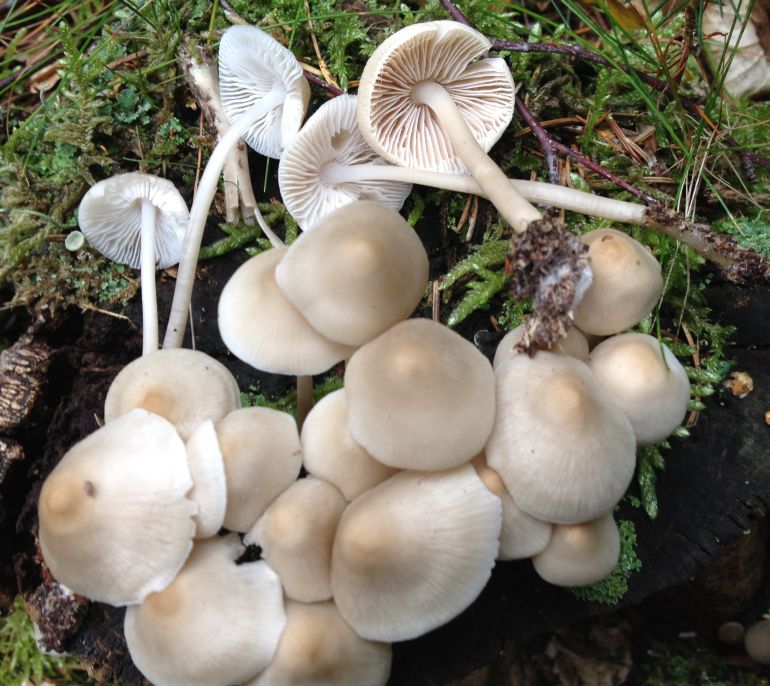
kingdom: Fungi
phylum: Basidiomycota
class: Agaricomycetes
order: Agaricales
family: Mycenaceae
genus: Mycena
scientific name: Mycena galericulata
